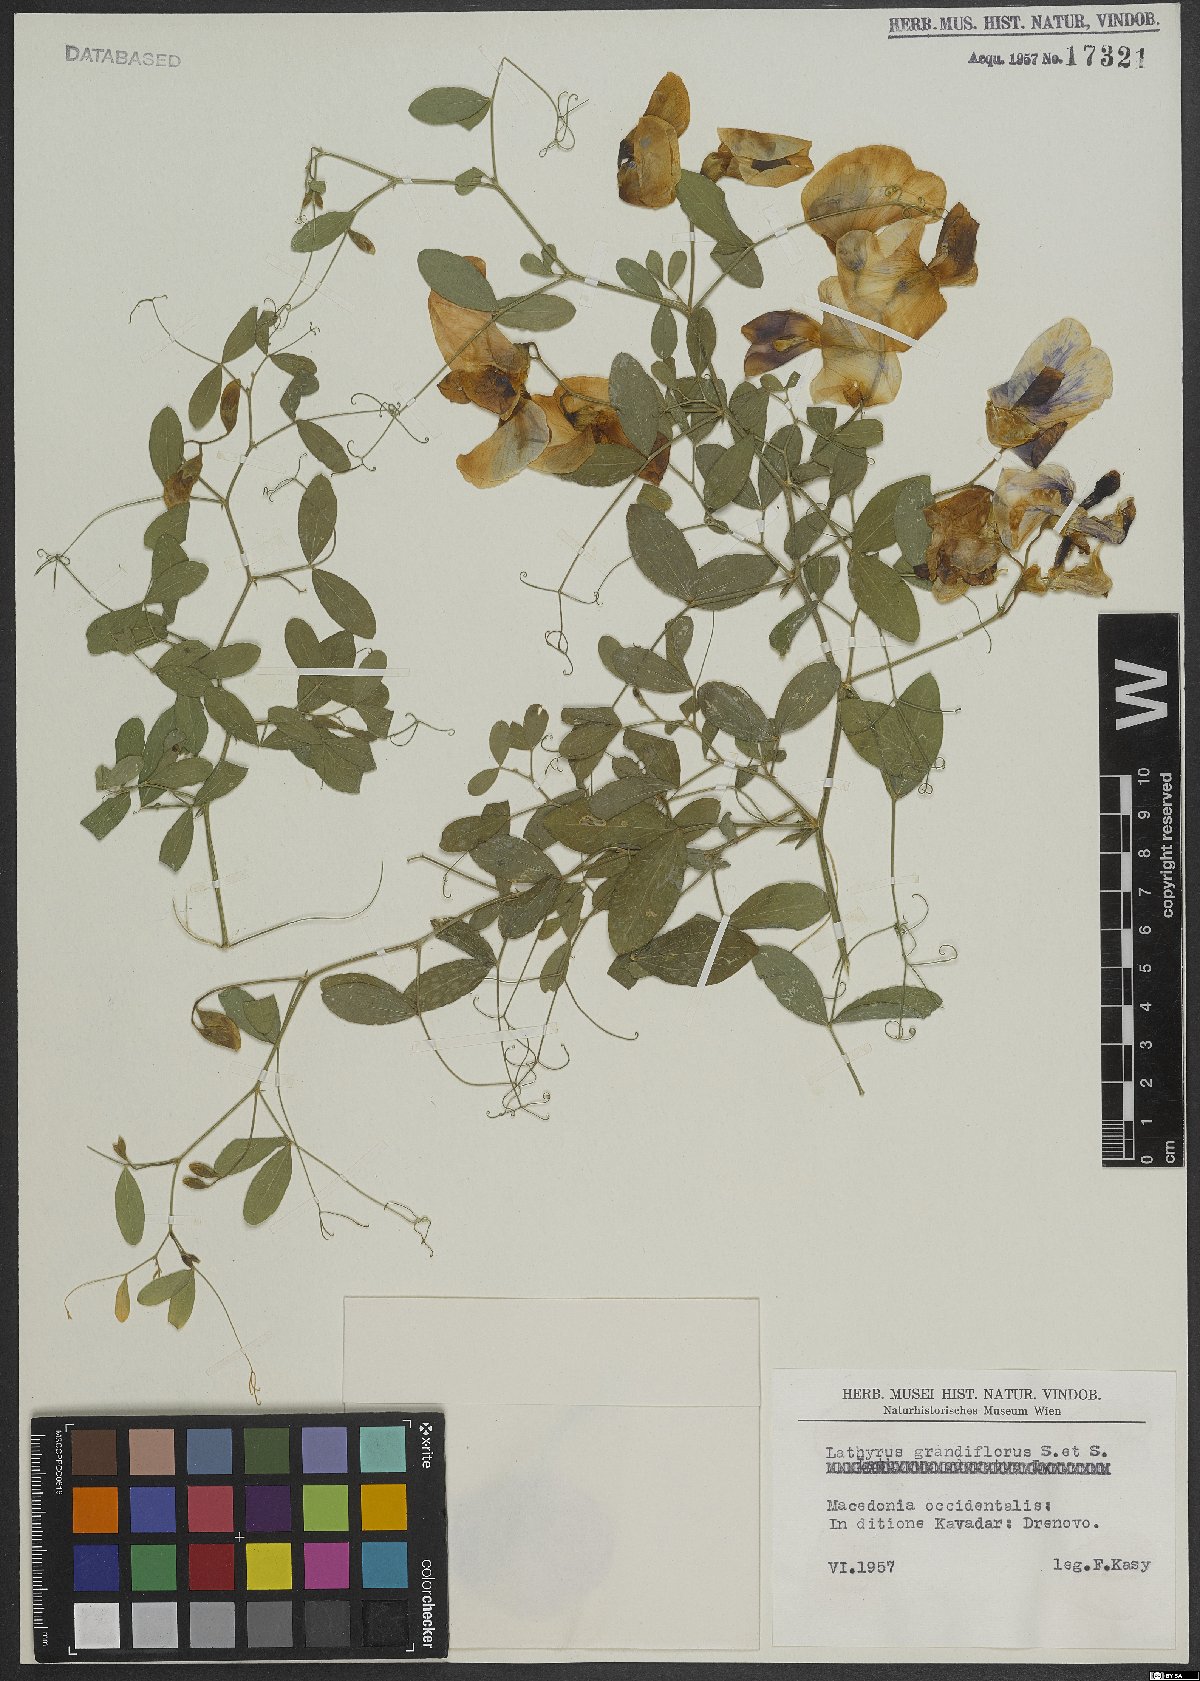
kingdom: Plantae
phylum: Tracheophyta
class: Magnoliopsida
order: Fabales
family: Fabaceae
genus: Lathyrus
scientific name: Lathyrus grandiflorus
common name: Two-flowered everlasting-pea
